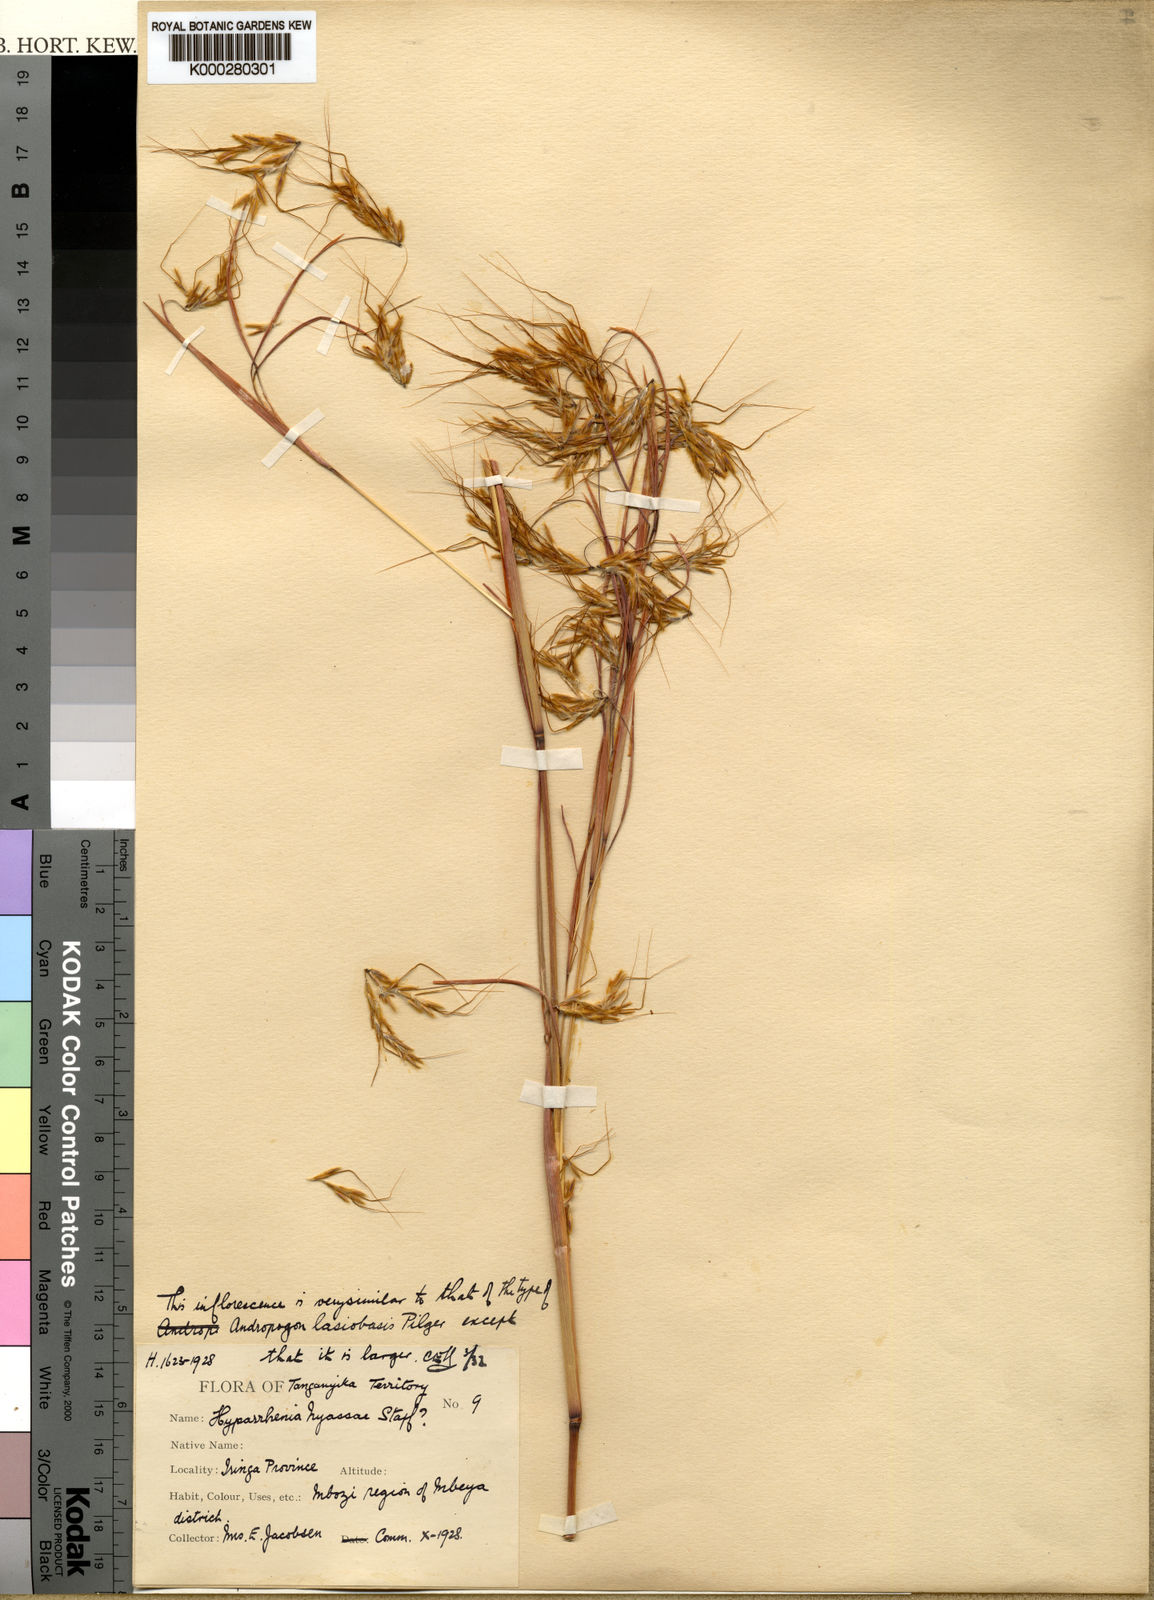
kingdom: Plantae
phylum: Tracheophyta
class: Liliopsida
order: Poales
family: Poaceae
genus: Hyparrhenia
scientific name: Hyparrhenia nyassae
